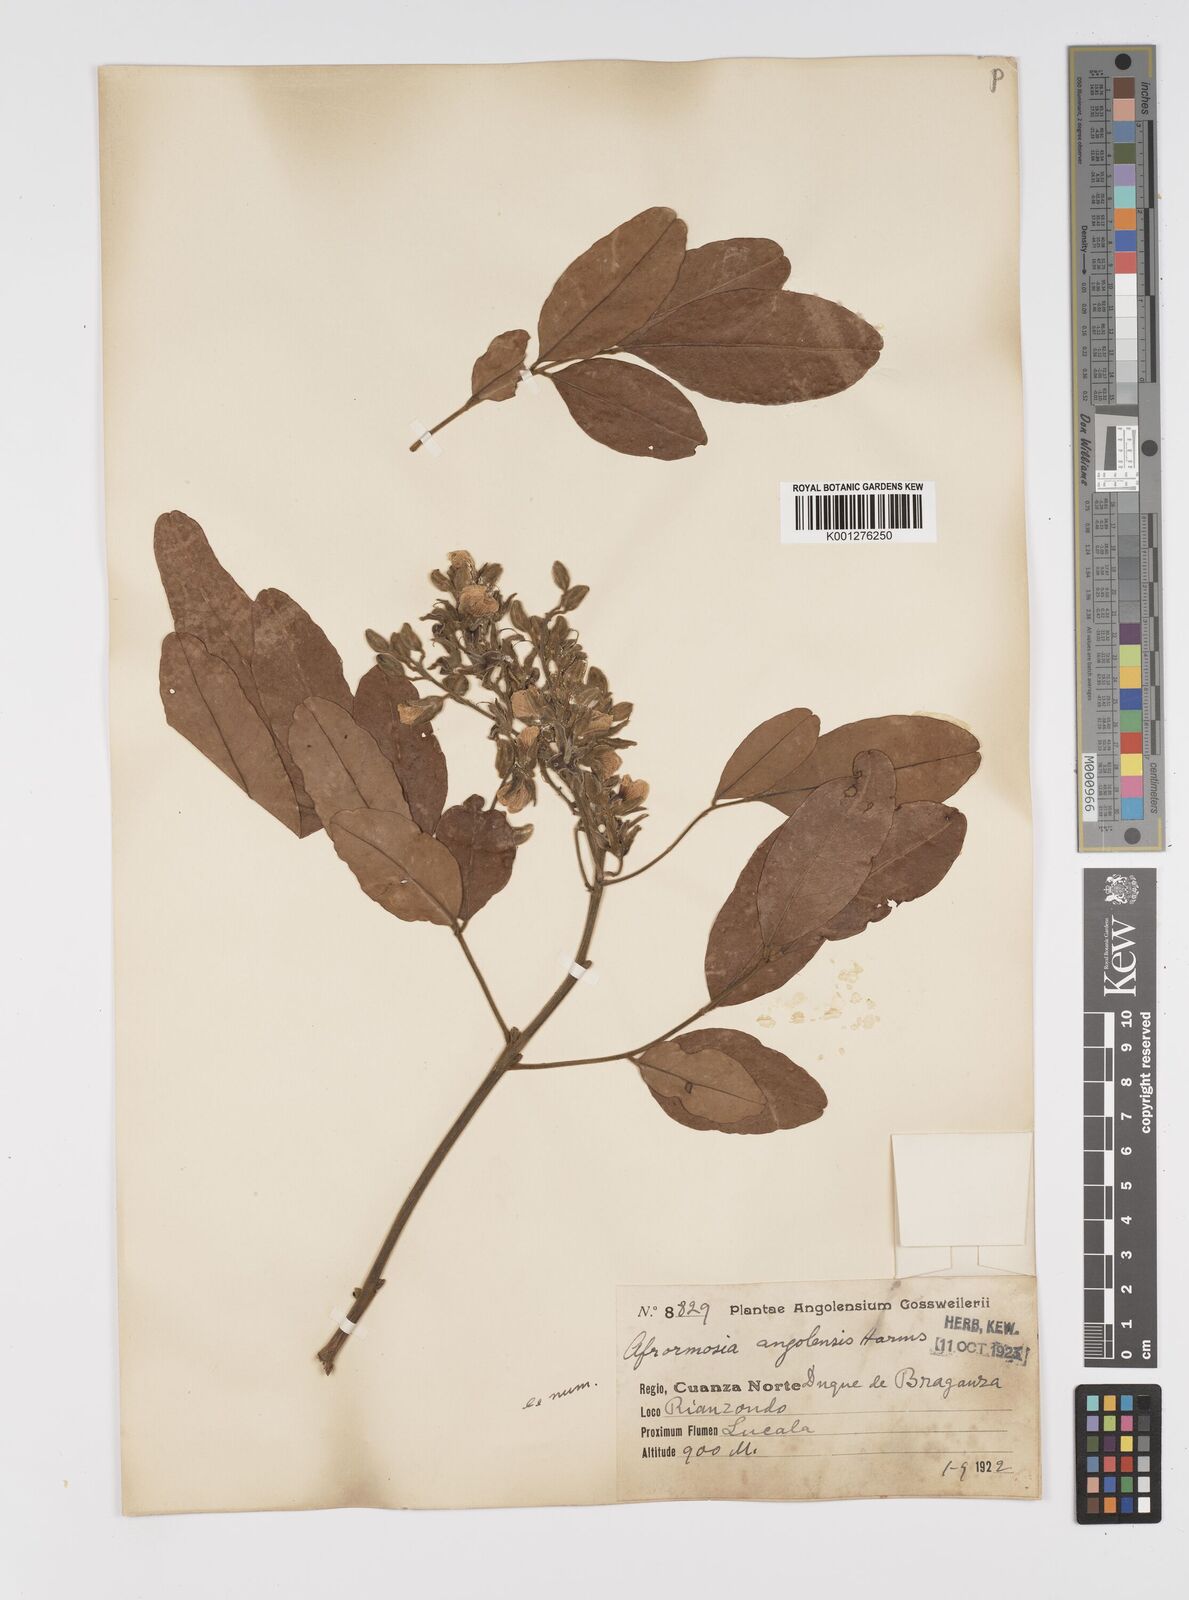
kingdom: Plantae
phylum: Tracheophyta
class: Magnoliopsida
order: Fabales
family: Fabaceae
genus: Pericopsis
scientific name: Pericopsis angolensis
